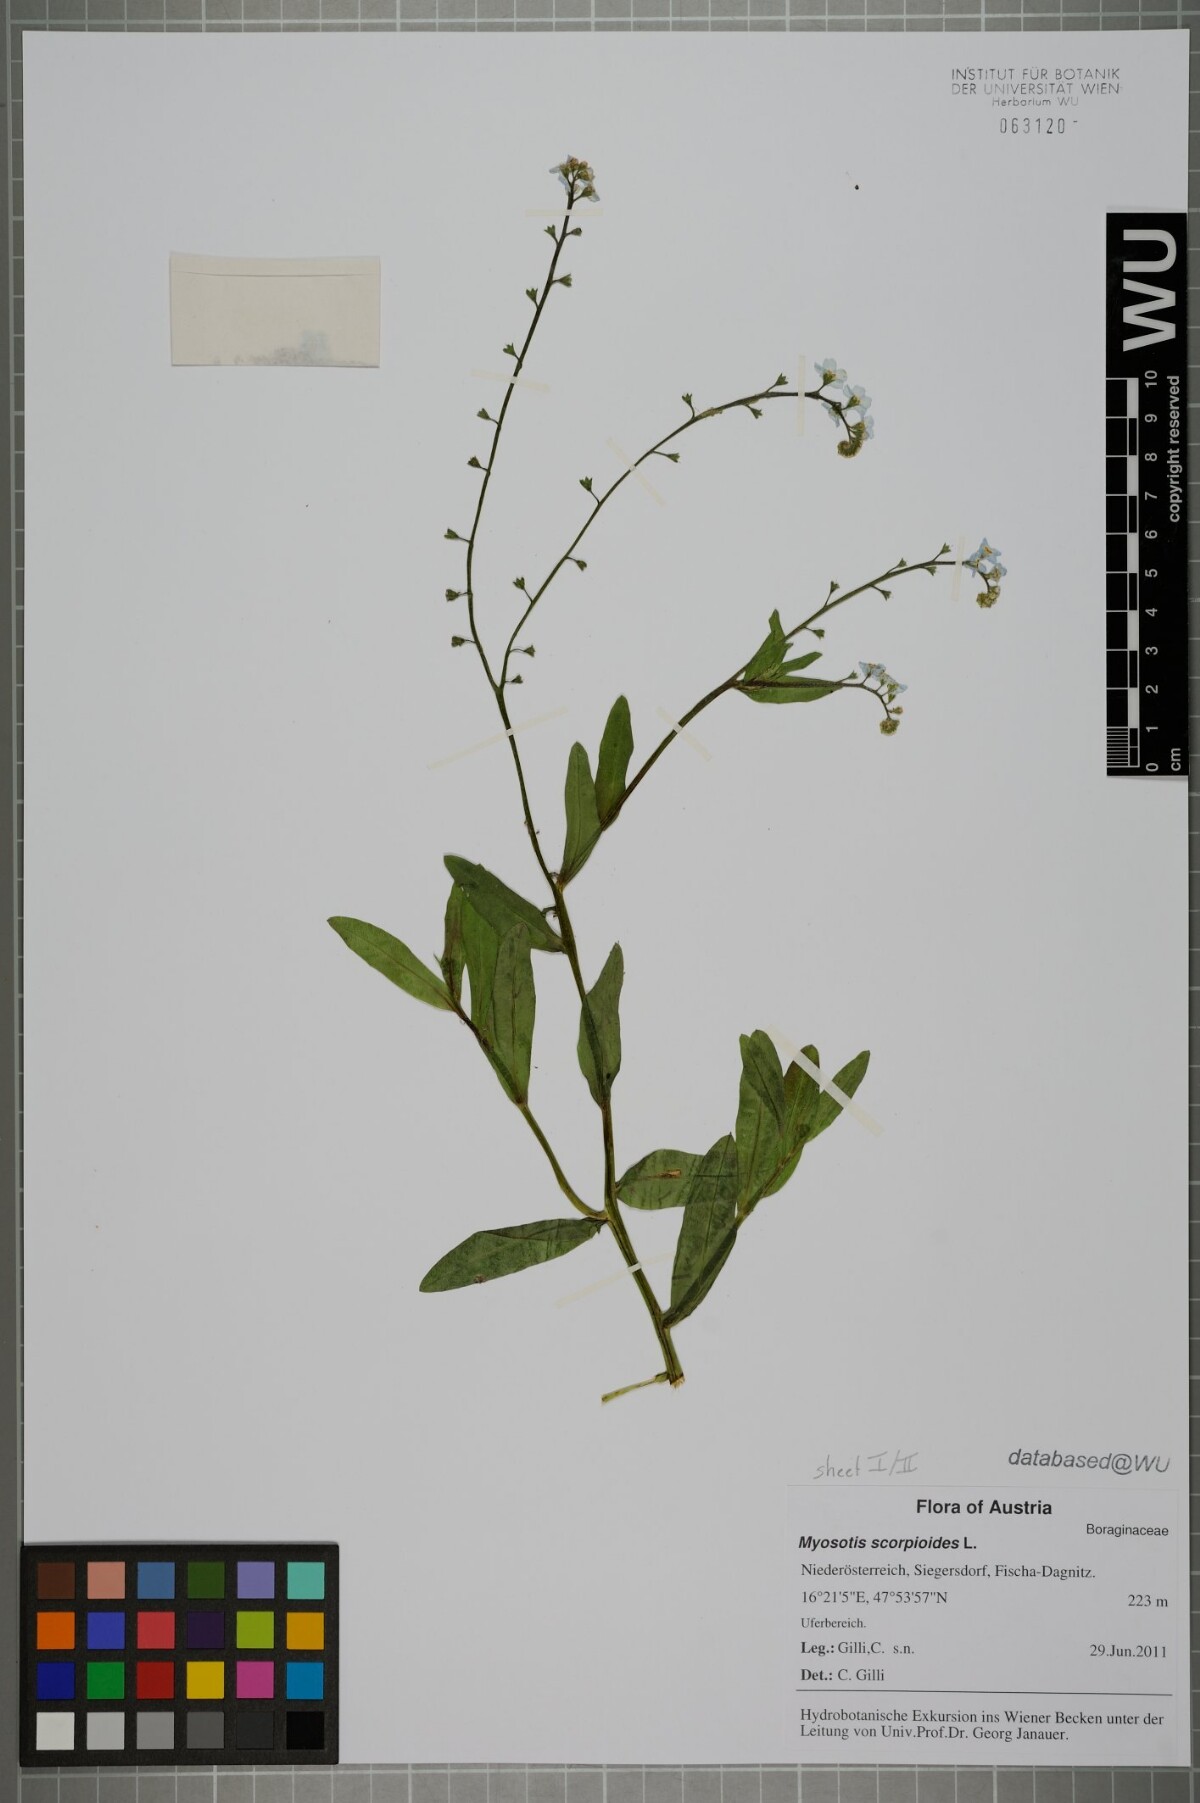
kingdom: Plantae
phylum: Tracheophyta
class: Magnoliopsida
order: Boraginales
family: Boraginaceae
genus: Myosotis
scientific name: Myosotis scorpioides
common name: Water forget-me-not
